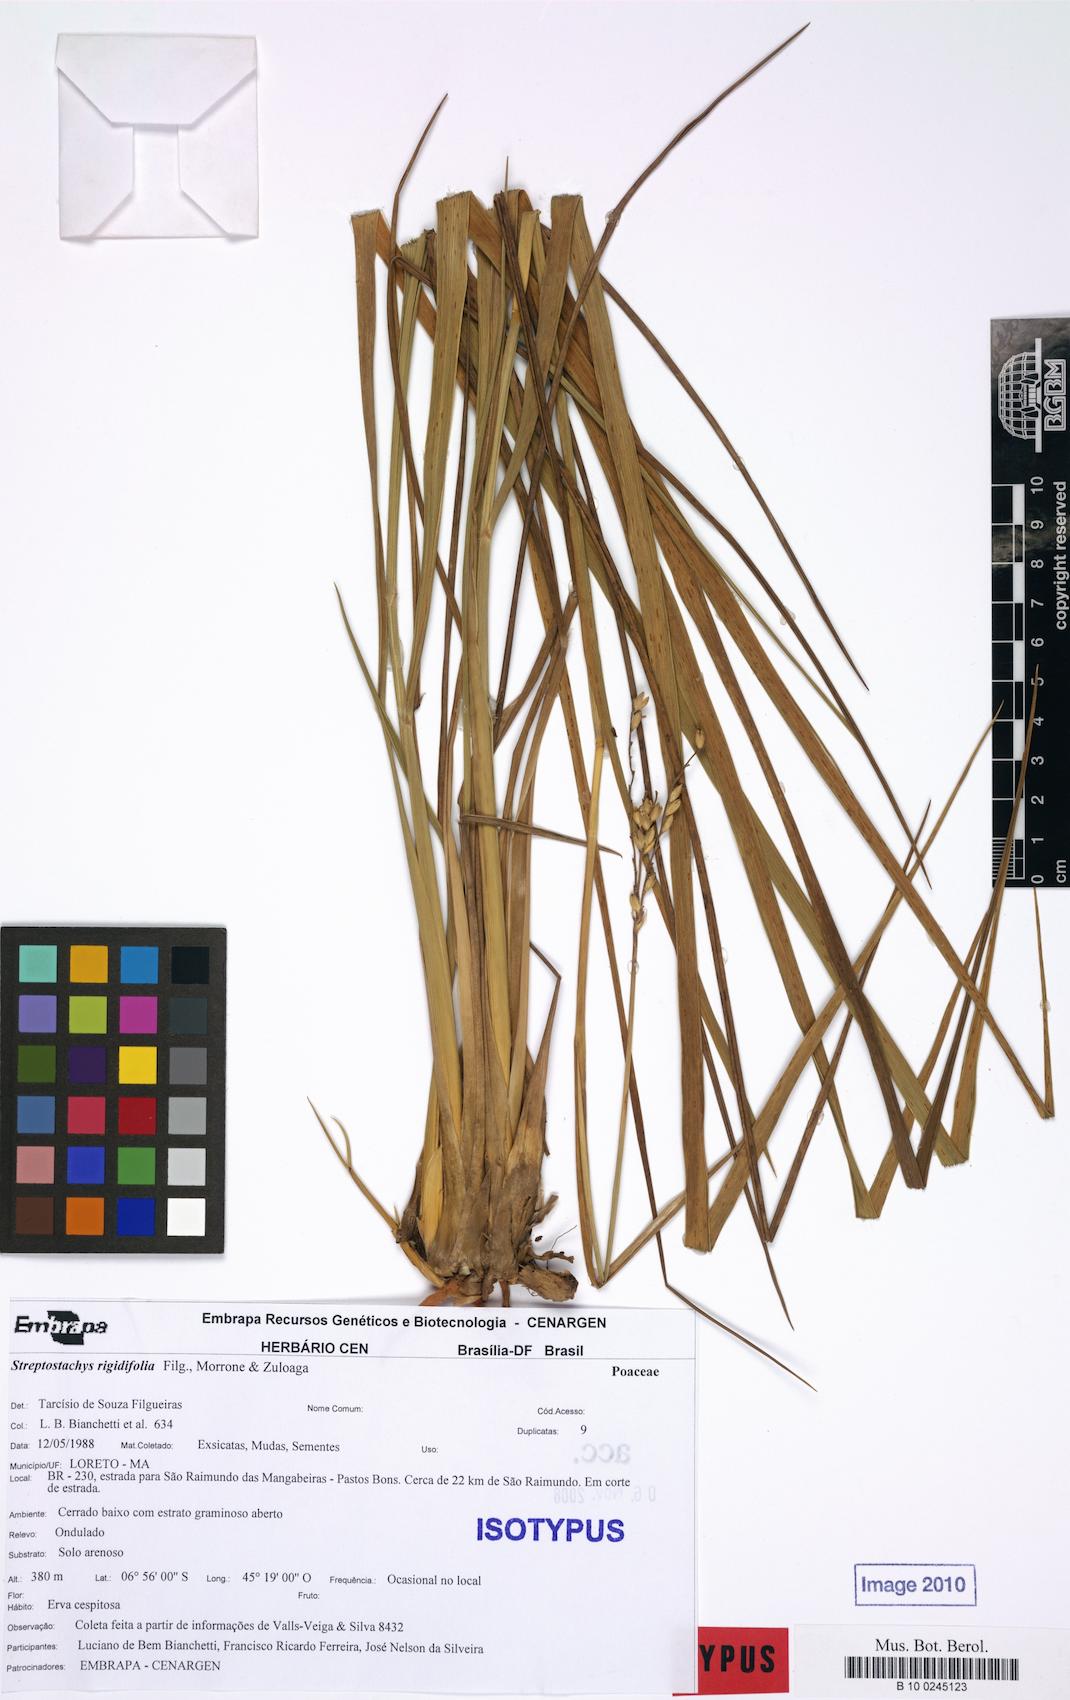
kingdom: Plantae
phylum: Tracheophyta
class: Liliopsida
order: Poales
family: Poaceae
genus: Keratochlaena
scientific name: Keratochlaena rigidifolia
